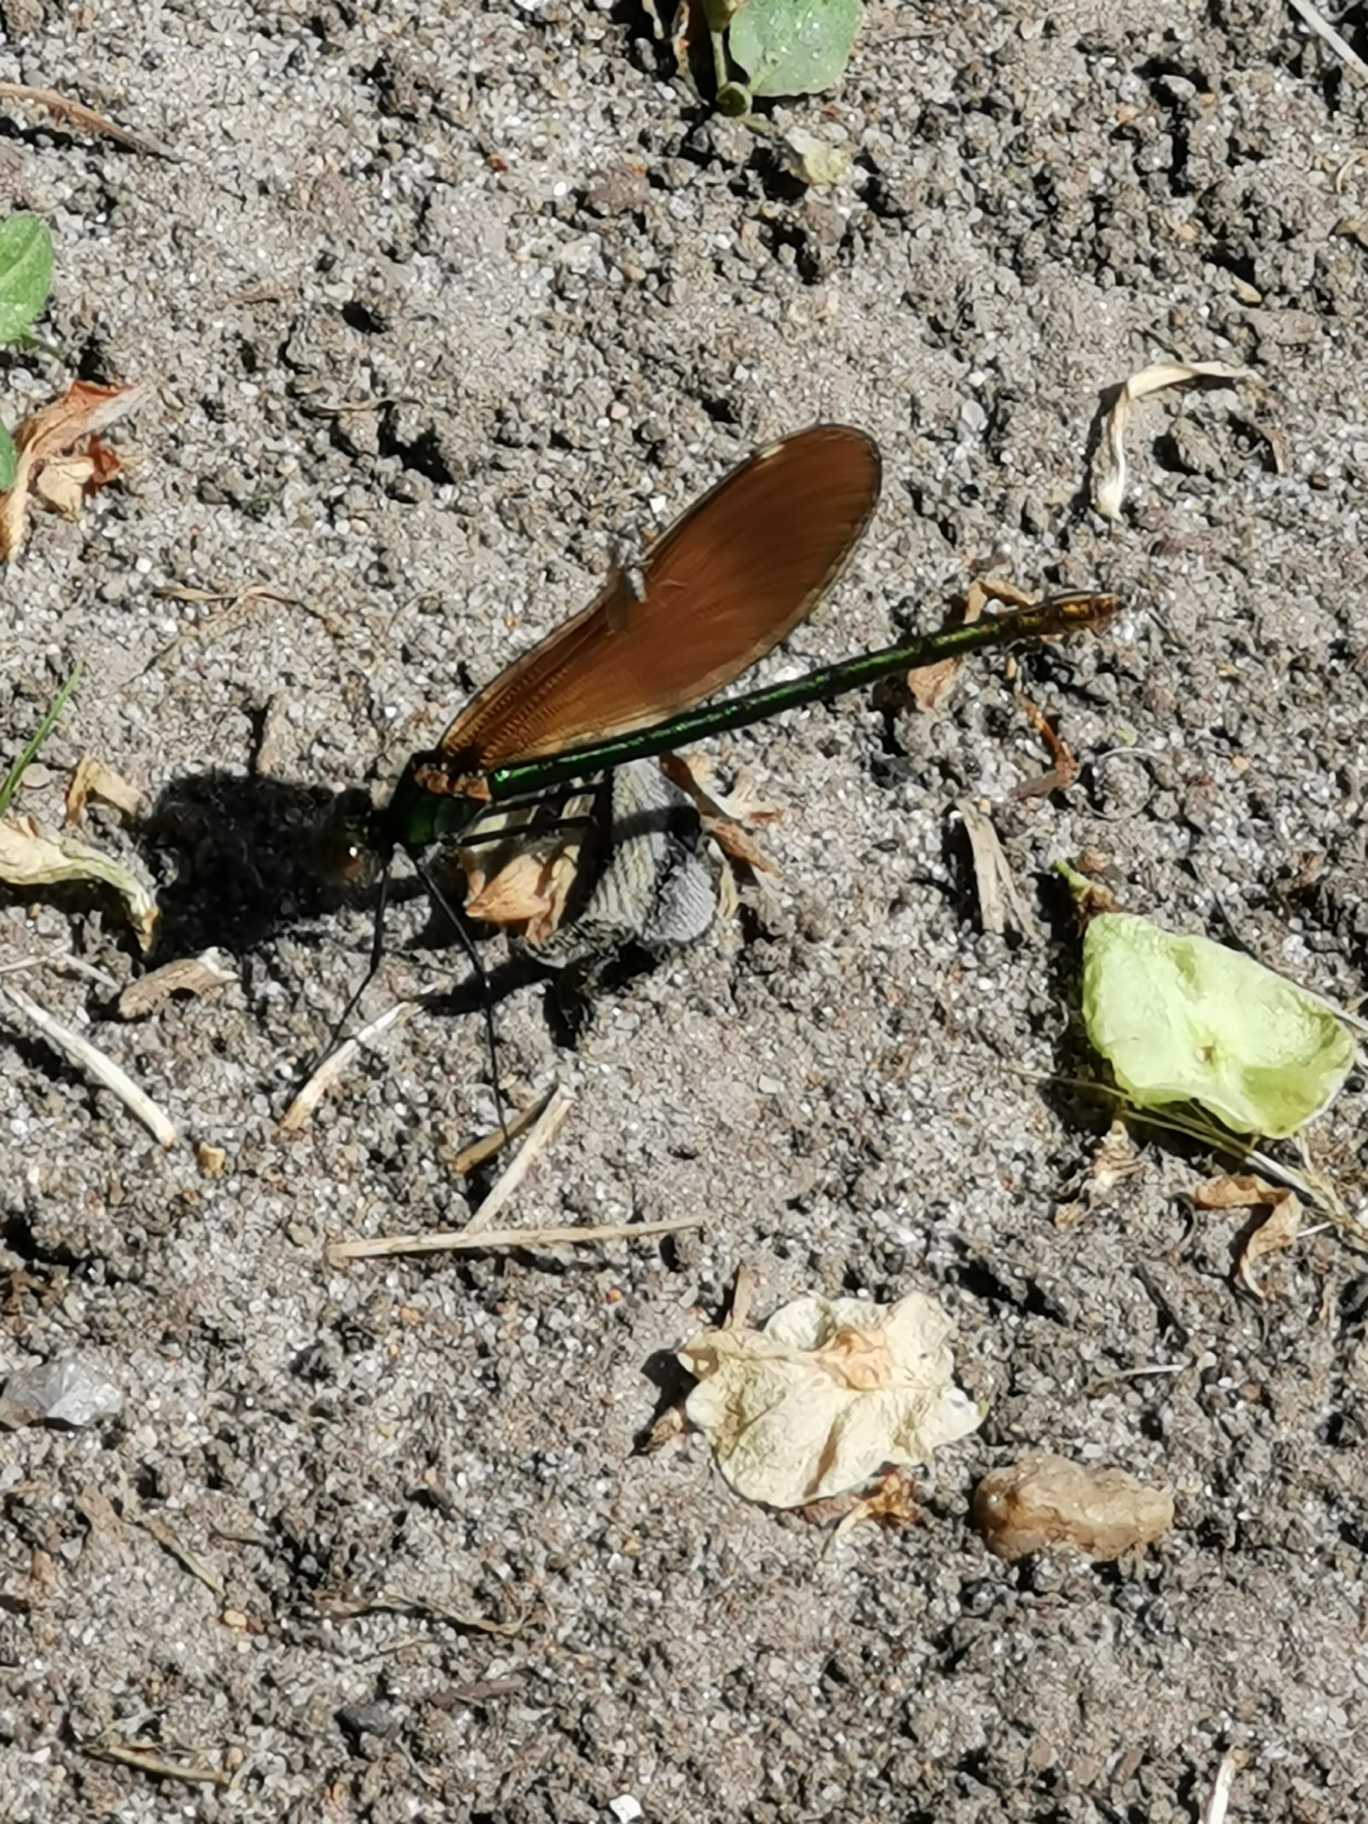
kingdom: Animalia
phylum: Arthropoda
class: Insecta
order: Odonata
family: Calopterygidae
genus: Calopteryx
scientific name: Calopteryx virgo
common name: Blåvinget pragtvandnymfe
